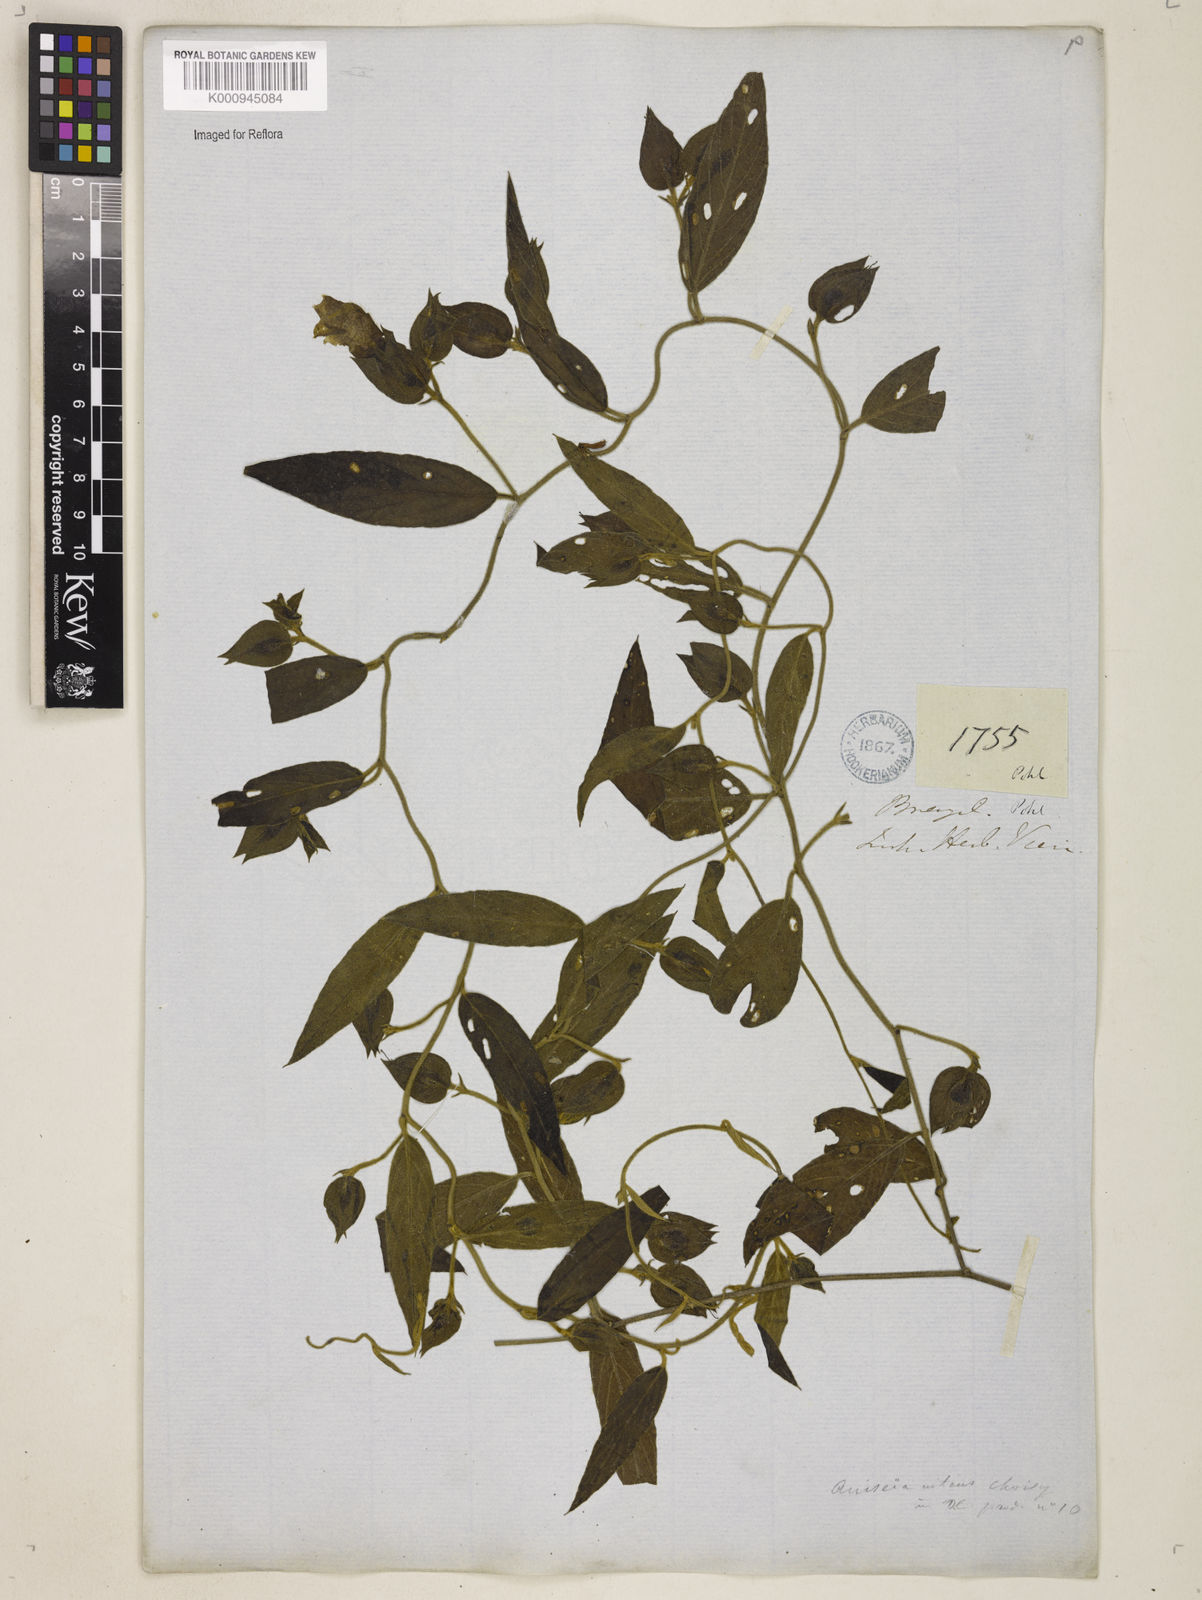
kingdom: Plantae
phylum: Tracheophyta
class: Magnoliopsida
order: Solanales
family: Convolvulaceae
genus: Aniseia
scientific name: Aniseia martinicensis
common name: Kulayadambu
